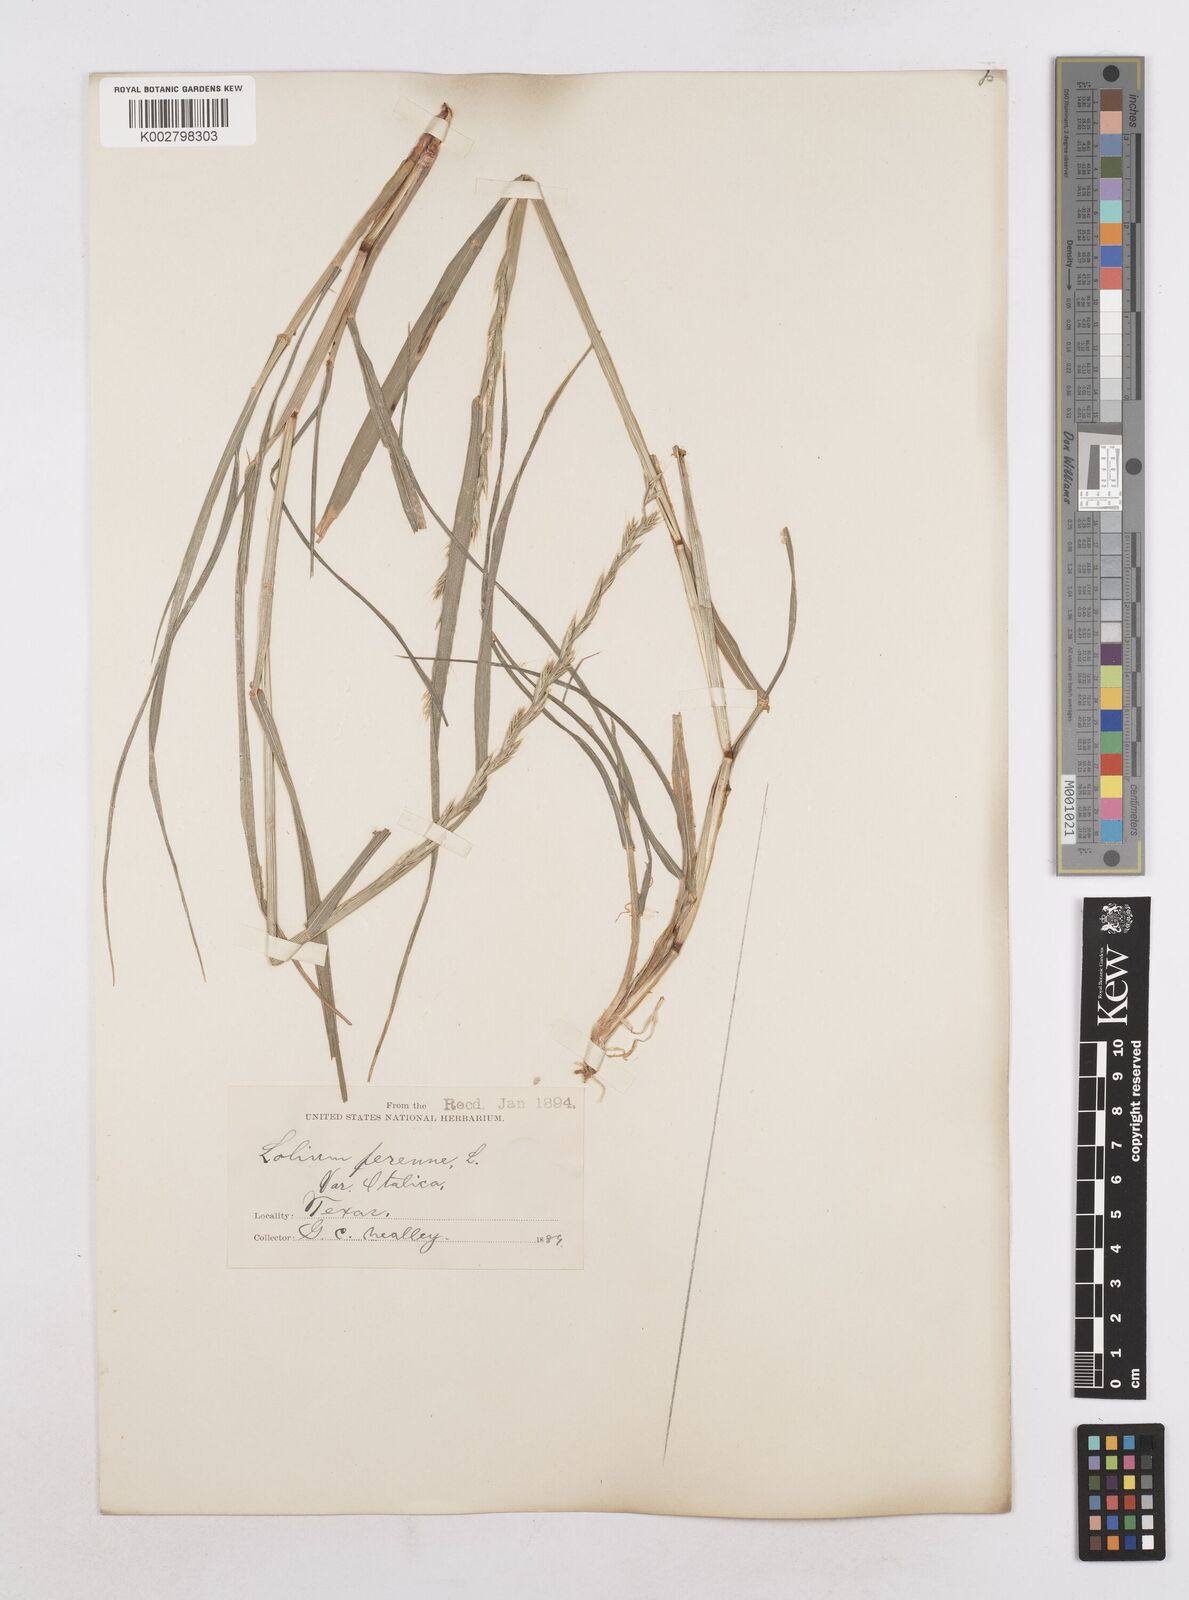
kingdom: Plantae
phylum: Tracheophyta
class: Liliopsida
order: Poales
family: Poaceae
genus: Lolium
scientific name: Lolium perenne
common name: Perennial ryegrass
